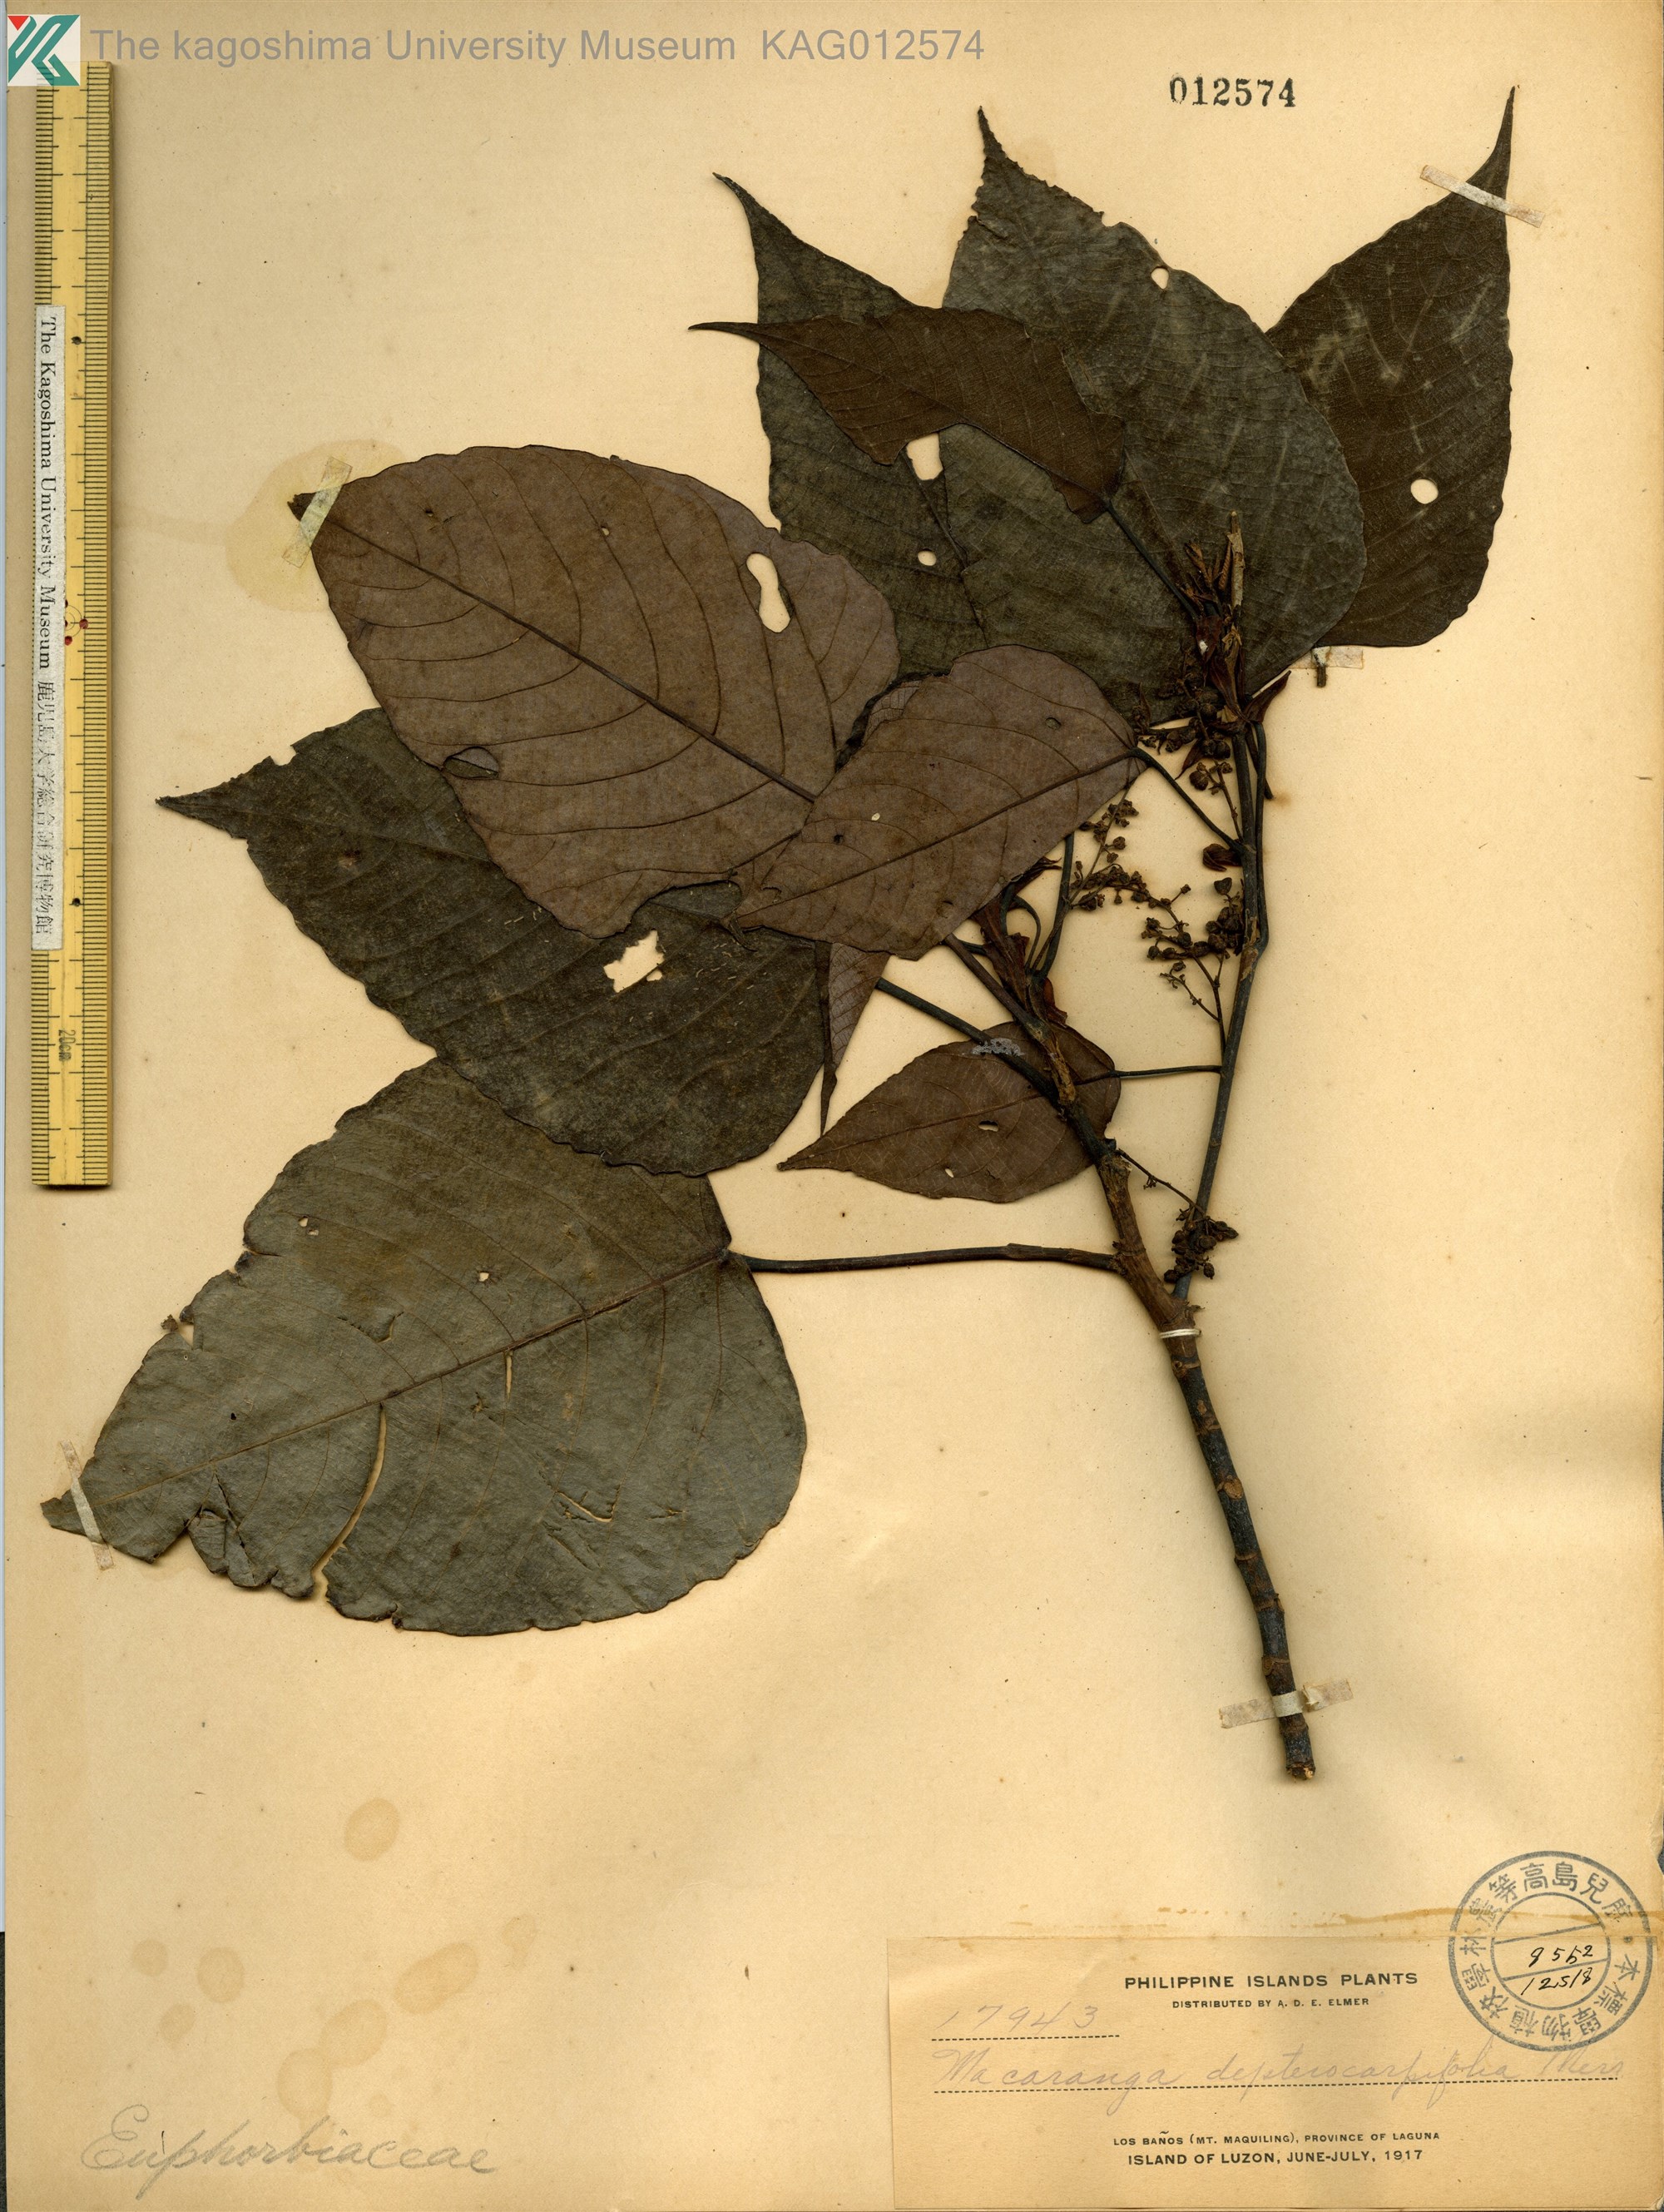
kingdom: Plantae
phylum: Tracheophyta
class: Magnoliopsida
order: Malpighiales
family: Euphorbiaceae
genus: Macaranga
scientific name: Macaranga sinensis
